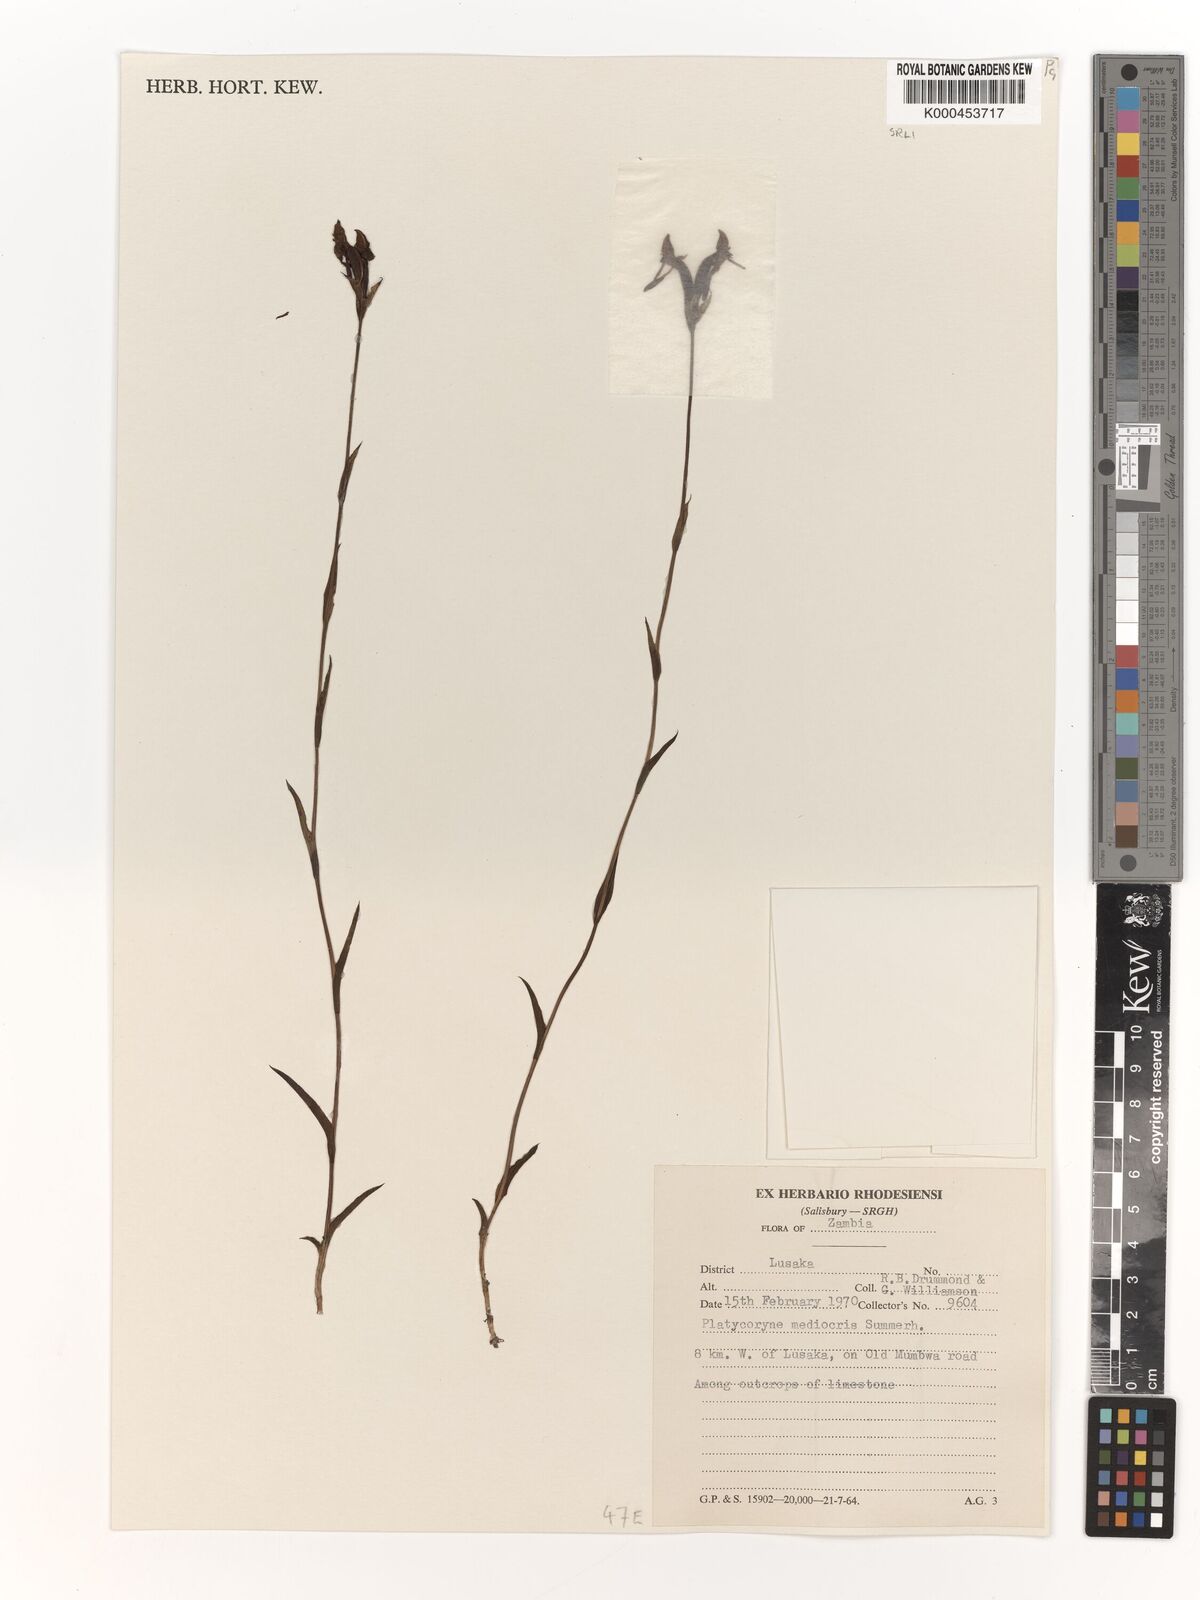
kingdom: Plantae
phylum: Tracheophyta
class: Liliopsida
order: Asparagales
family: Orchidaceae
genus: Platycoryne
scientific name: Platycoryne mediocris
